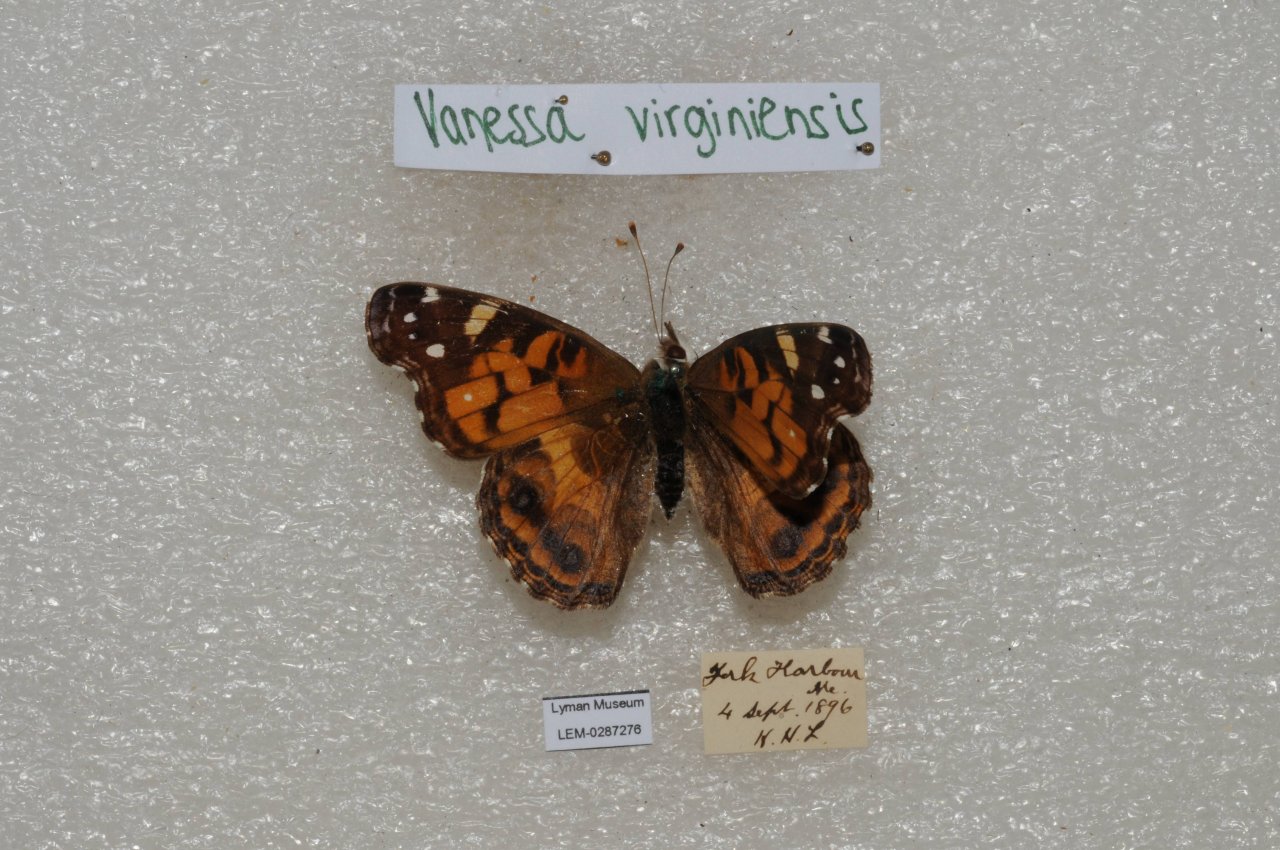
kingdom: Animalia
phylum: Arthropoda
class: Insecta
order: Lepidoptera
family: Nymphalidae
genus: Vanessa
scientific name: Vanessa virginiensis
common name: American Lady
